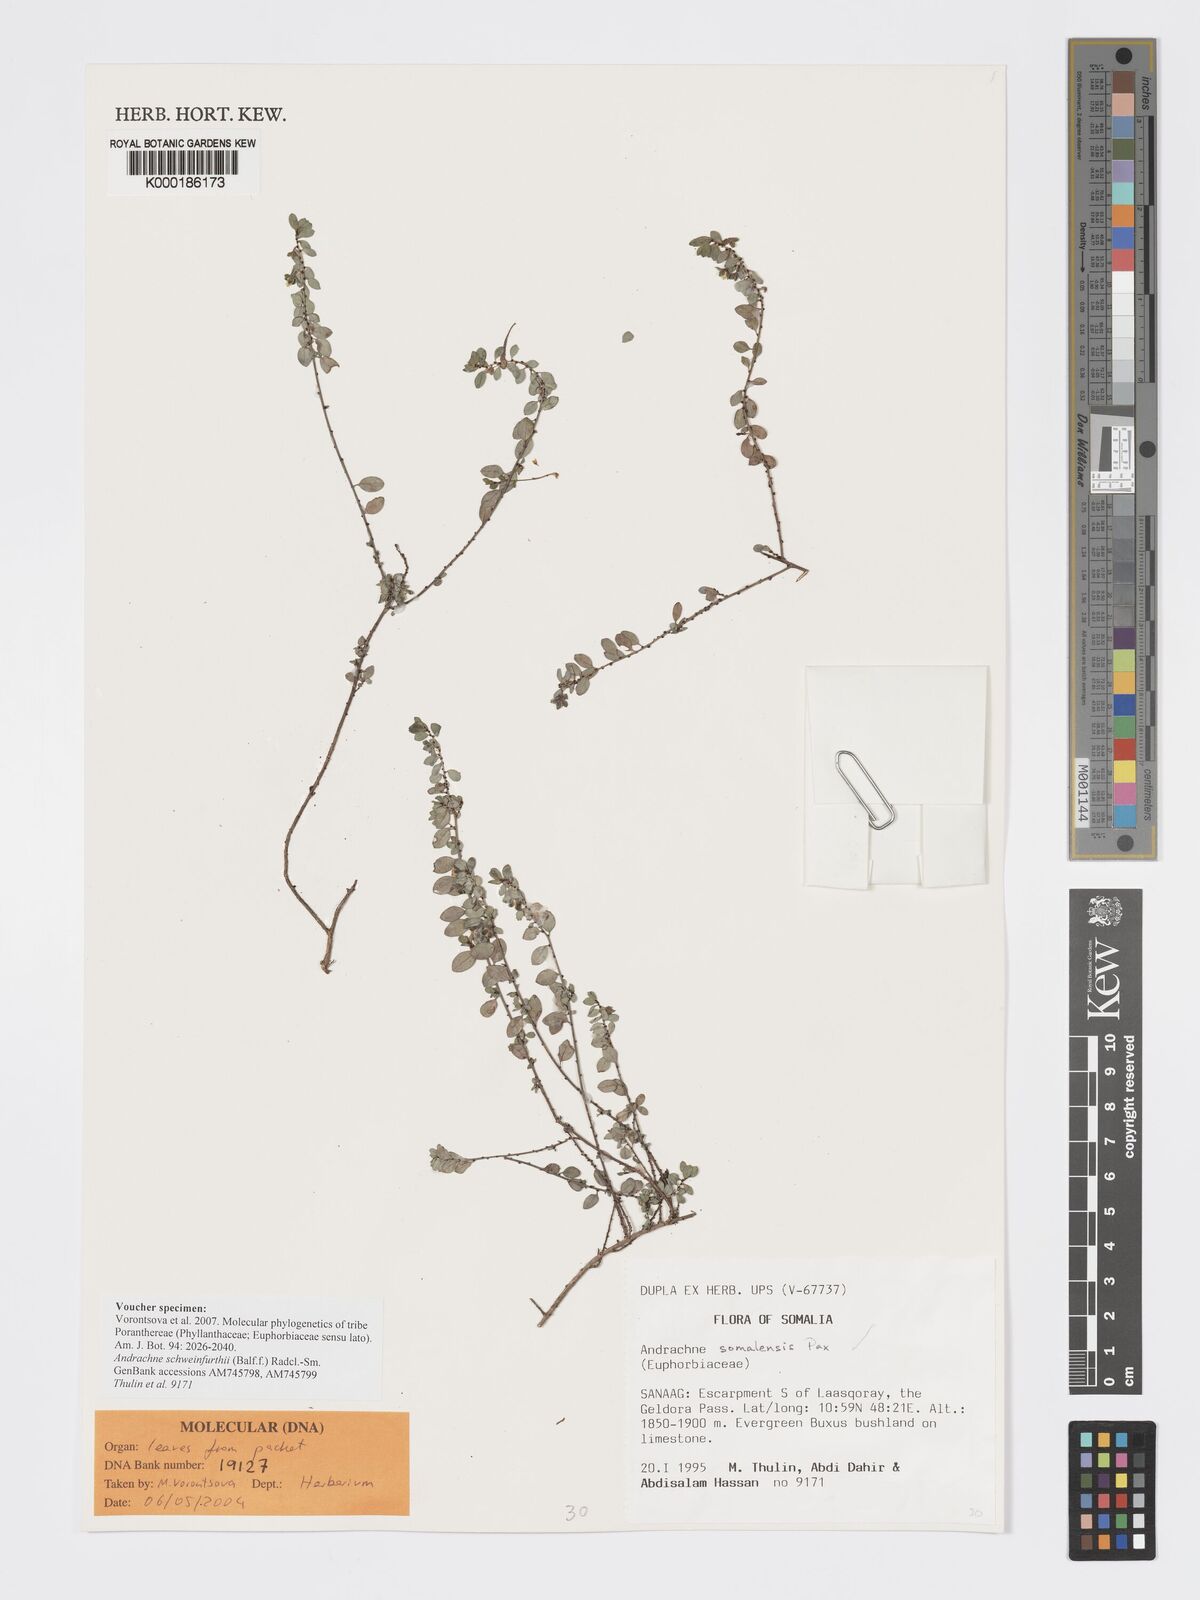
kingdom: Plantae
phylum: Tracheophyta
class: Magnoliopsida
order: Malpighiales
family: Phyllanthaceae
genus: Andrachne
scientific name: Andrachne schweinfurthii
